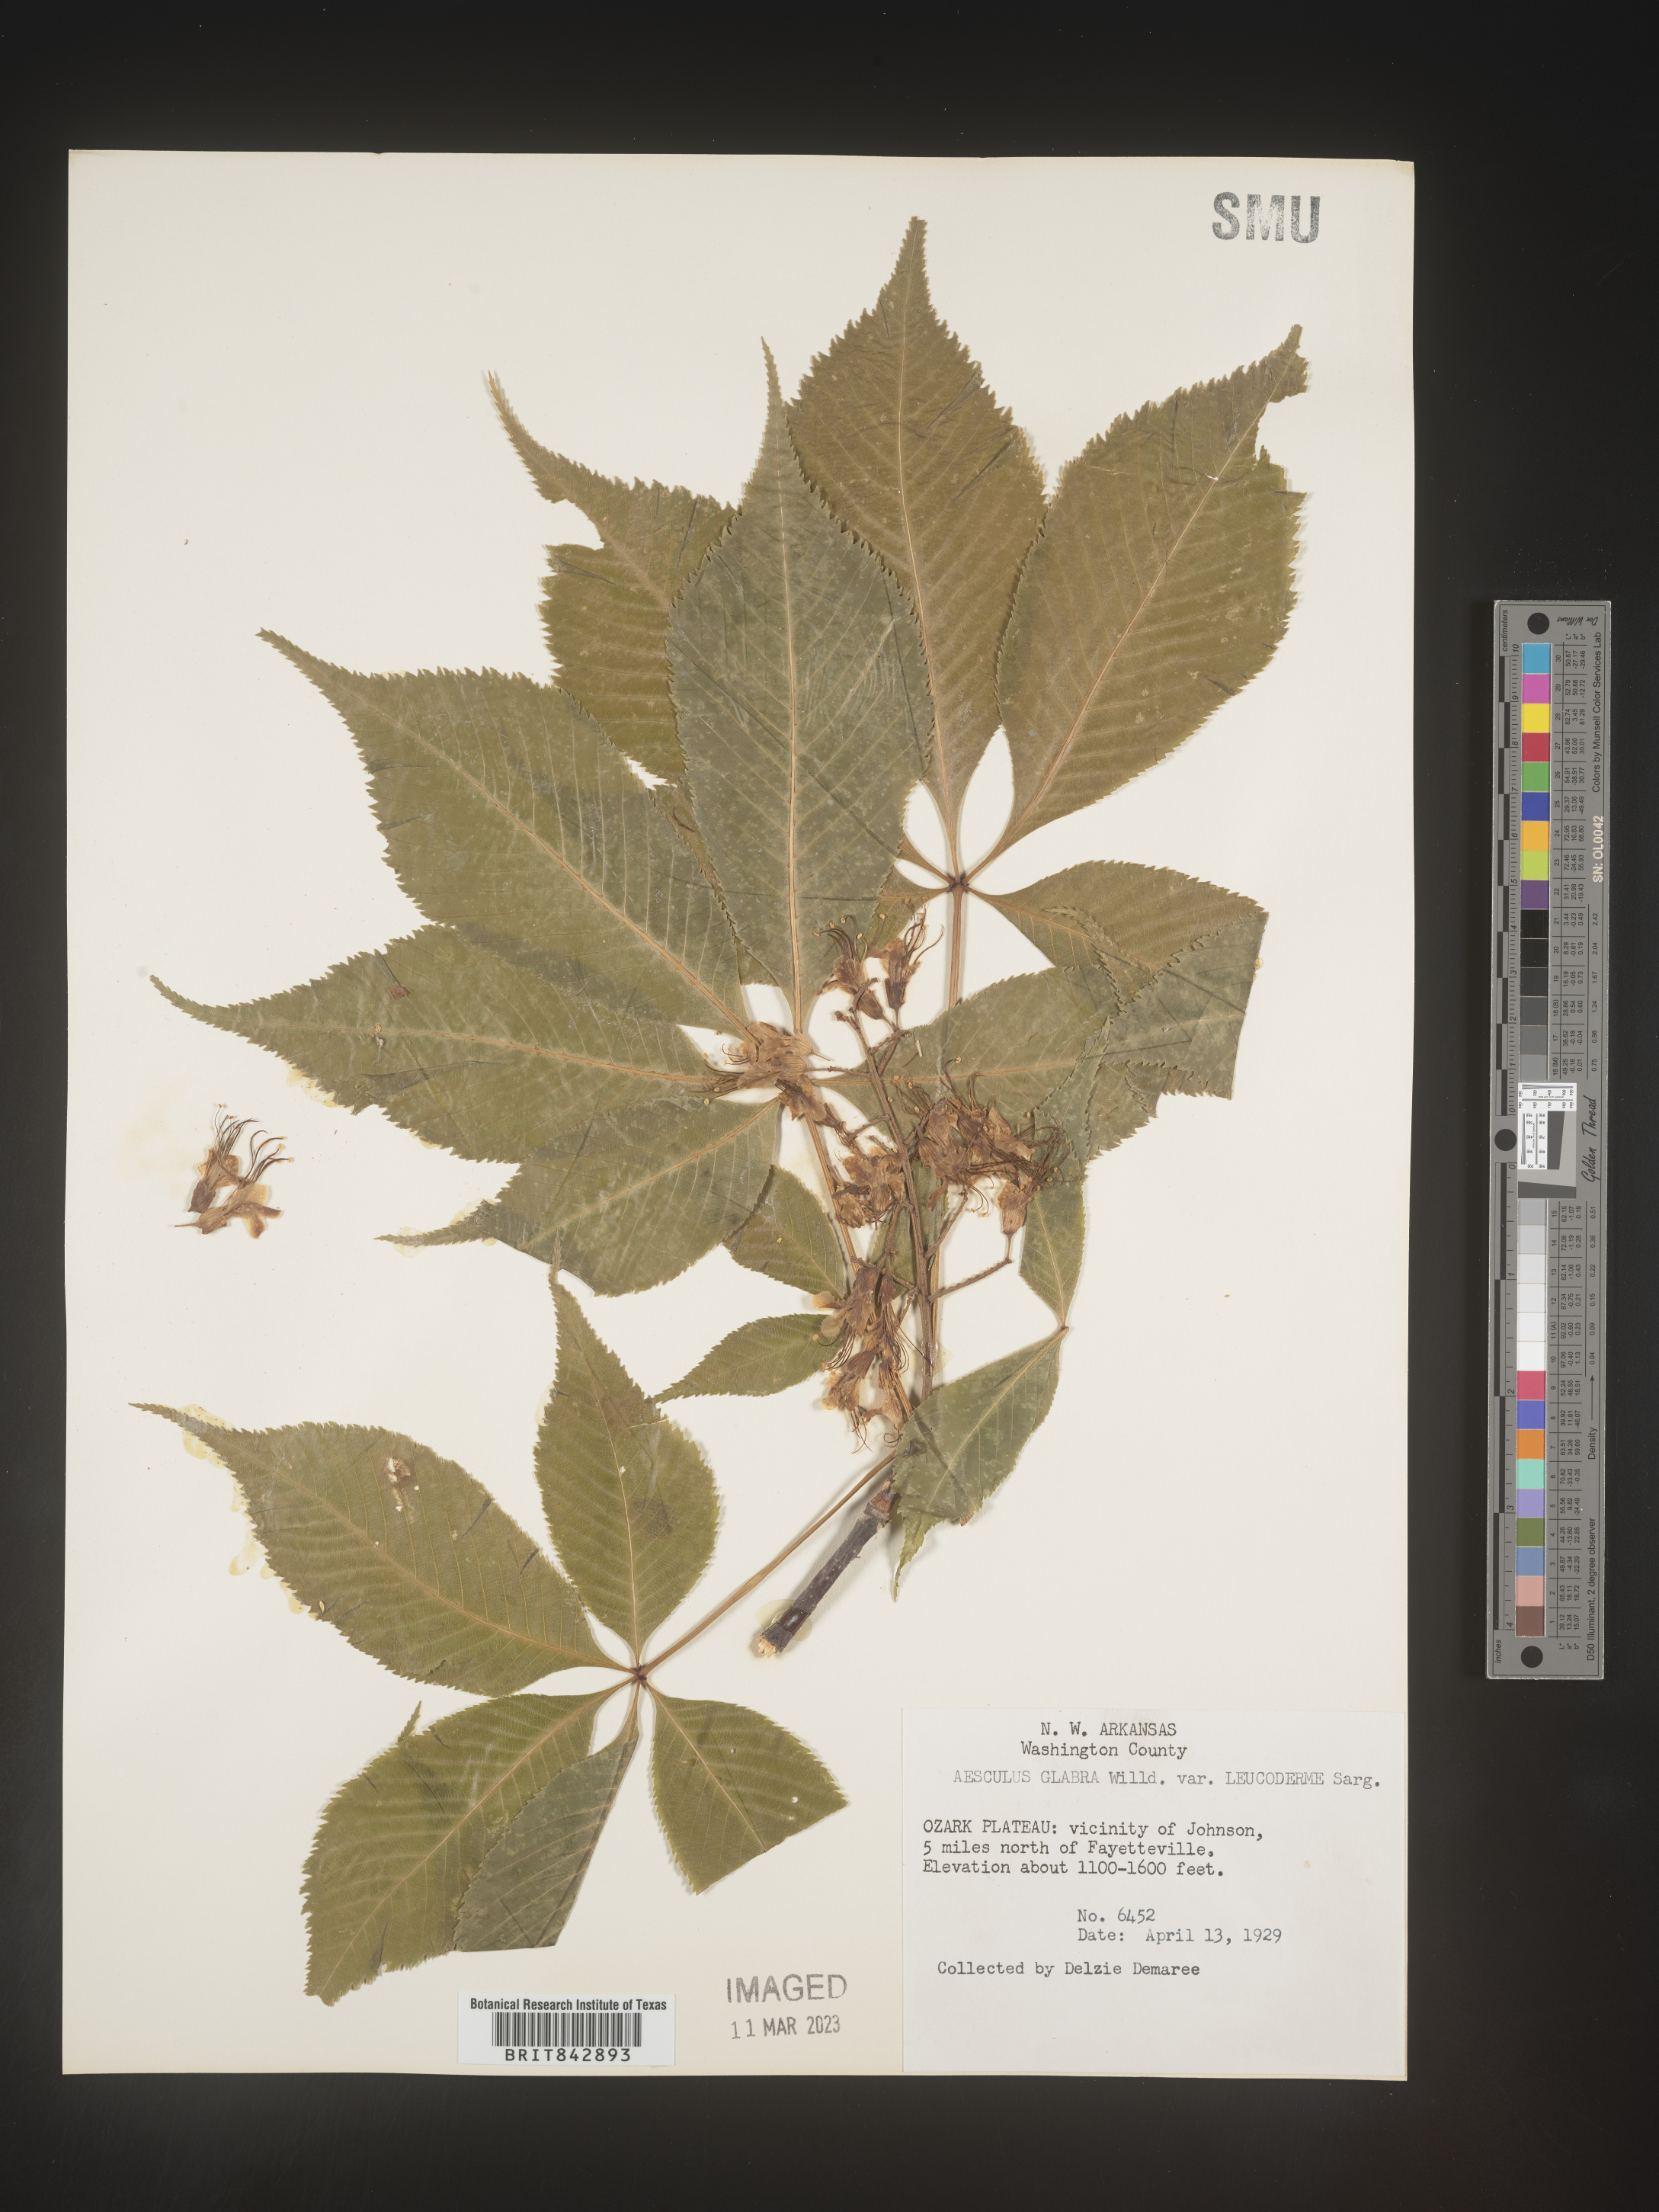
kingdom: Plantae
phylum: Tracheophyta
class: Magnoliopsida
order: Sapindales
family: Sapindaceae
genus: Aesculus
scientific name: Aesculus glabra
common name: Ohio buckeye
